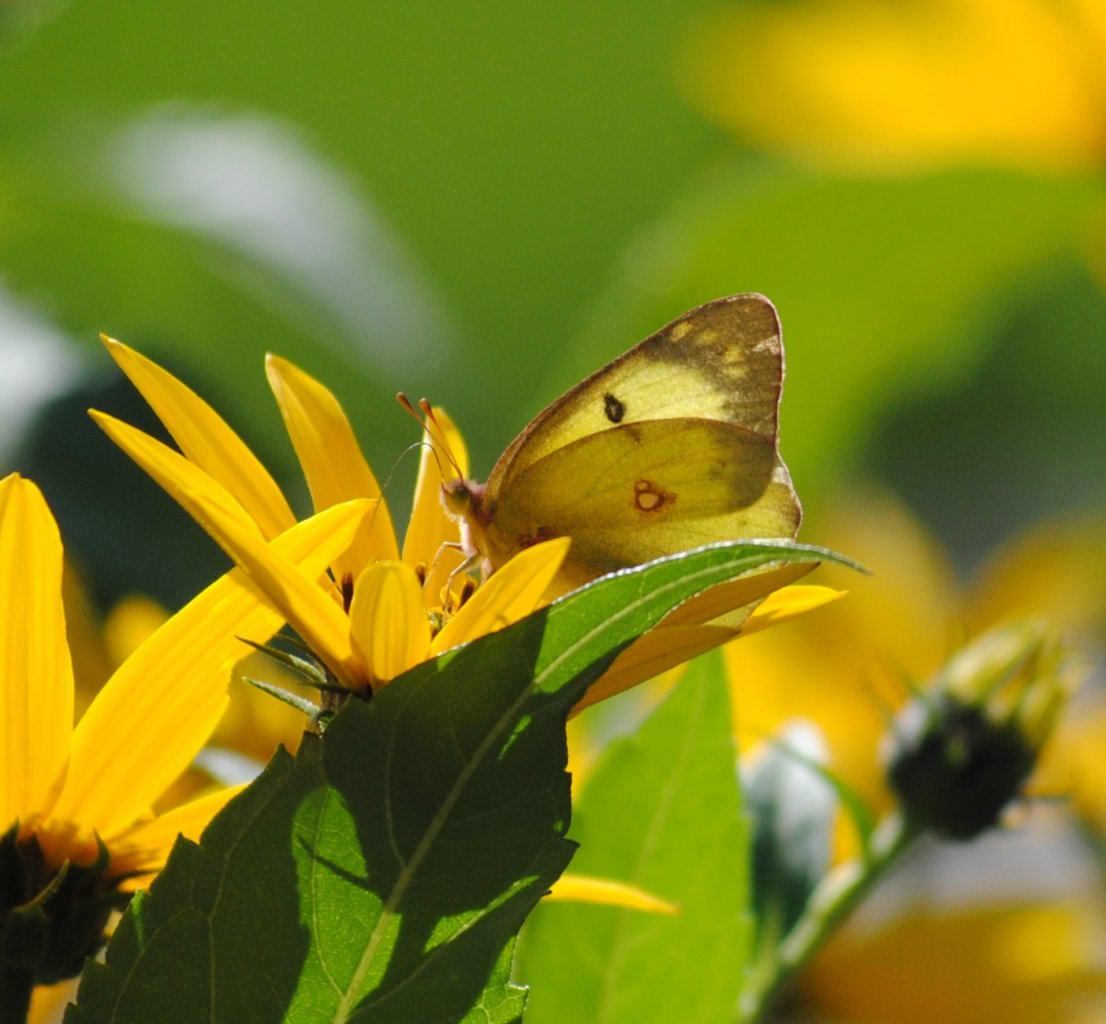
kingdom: Animalia
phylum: Arthropoda
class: Insecta
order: Lepidoptera
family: Pieridae
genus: Colias
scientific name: Colias philodice
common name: Clouded Sulphur
